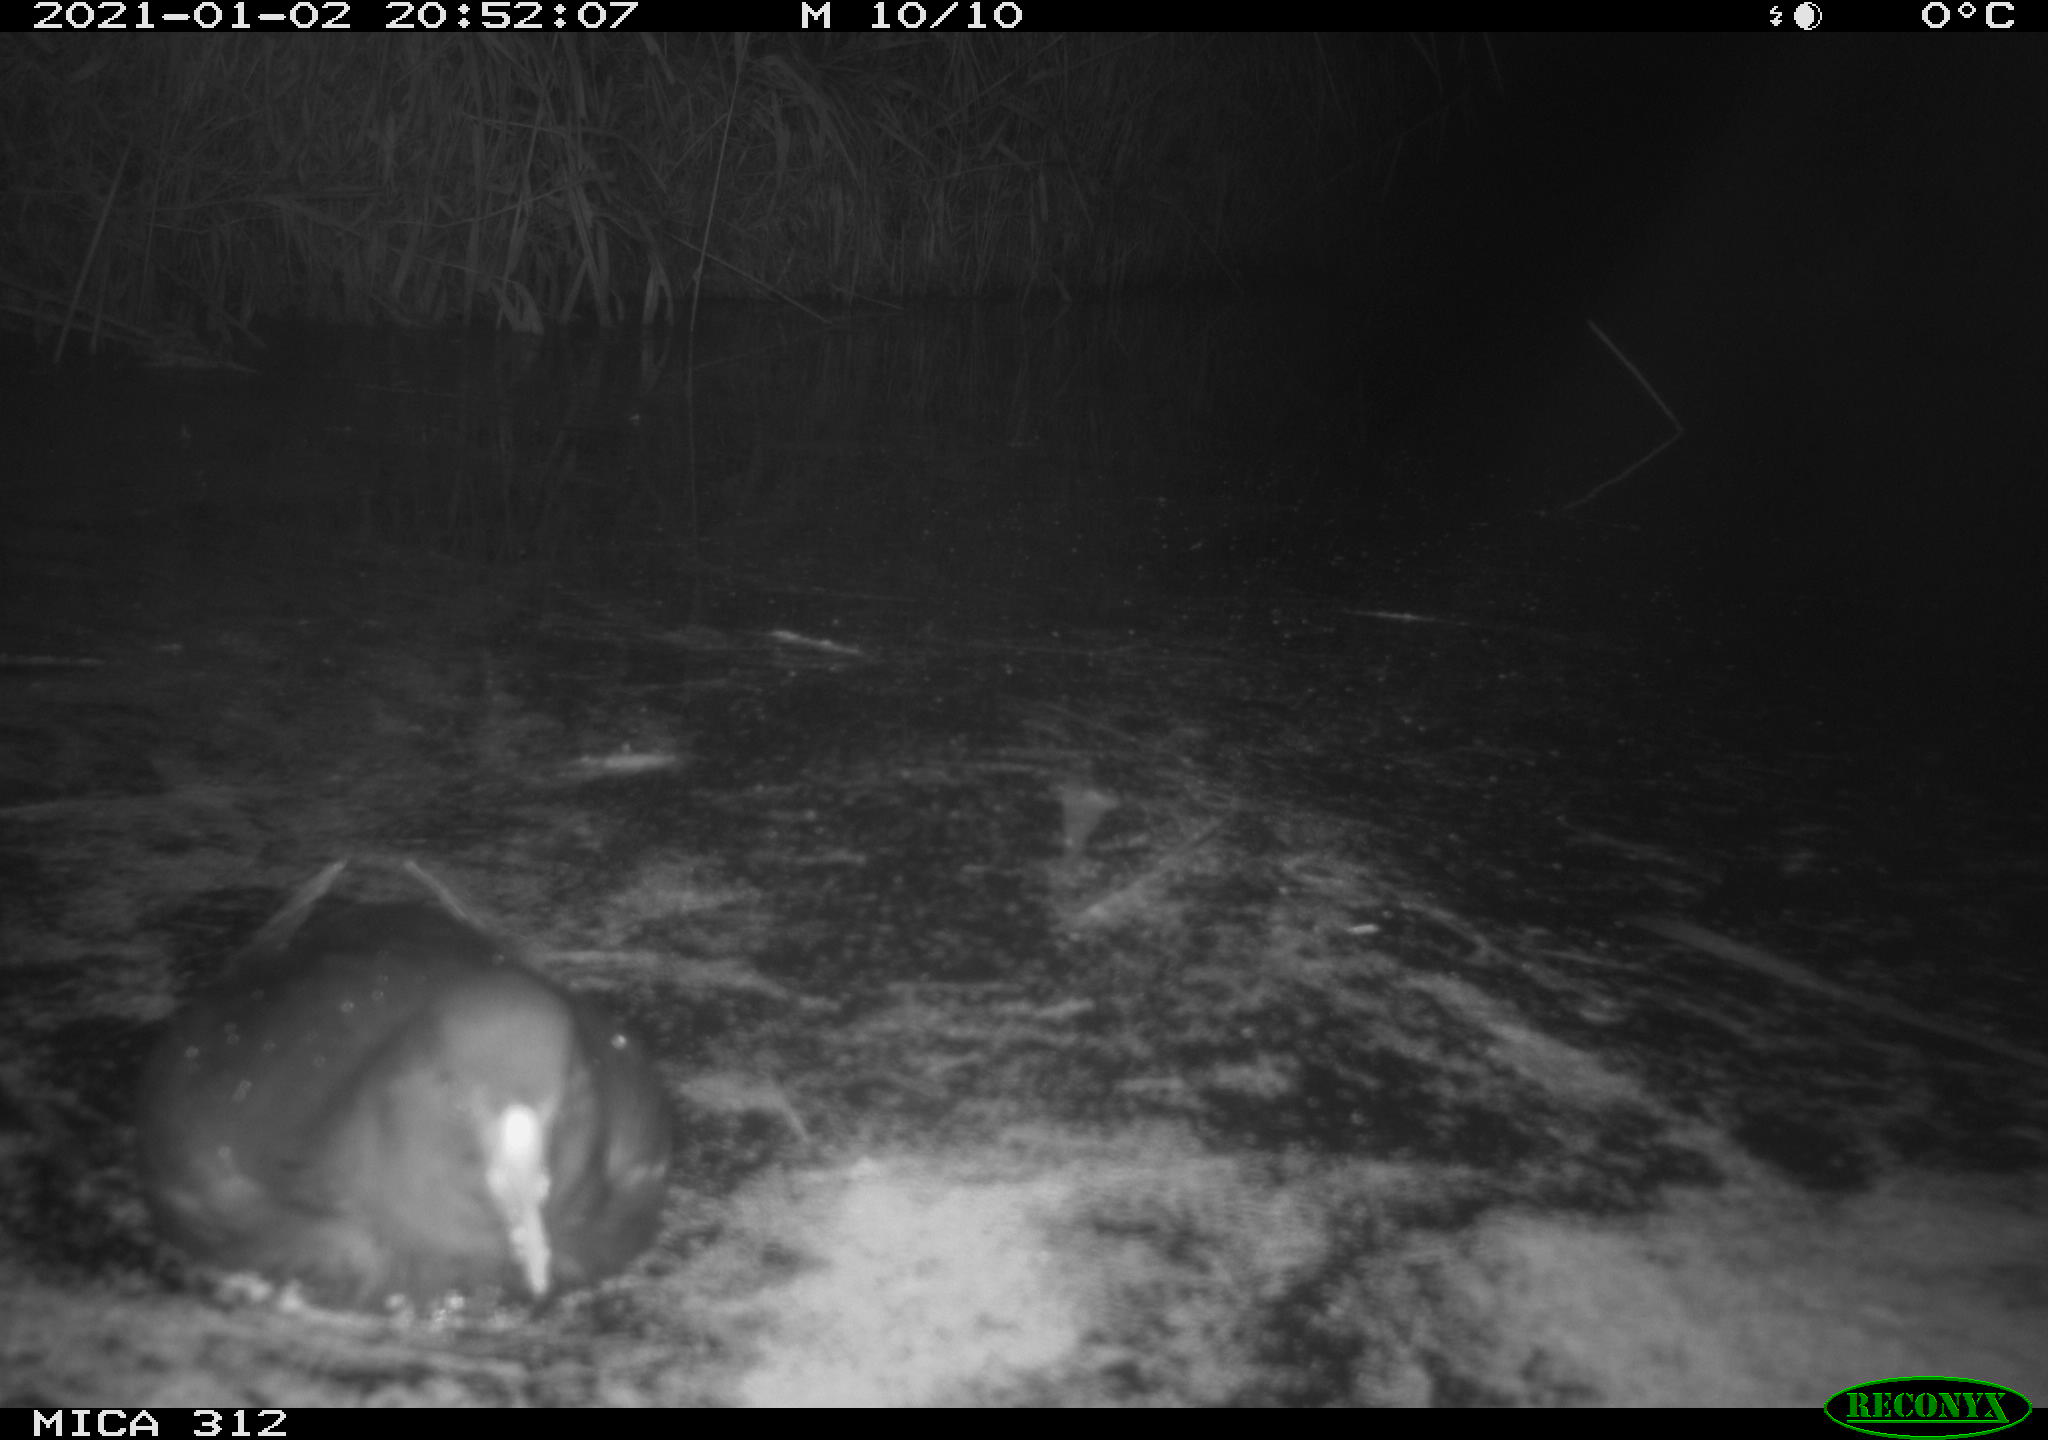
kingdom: Animalia
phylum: Chordata
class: Aves
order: Gruiformes
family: Rallidae
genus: Gallinula
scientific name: Gallinula chloropus
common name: Common moorhen
